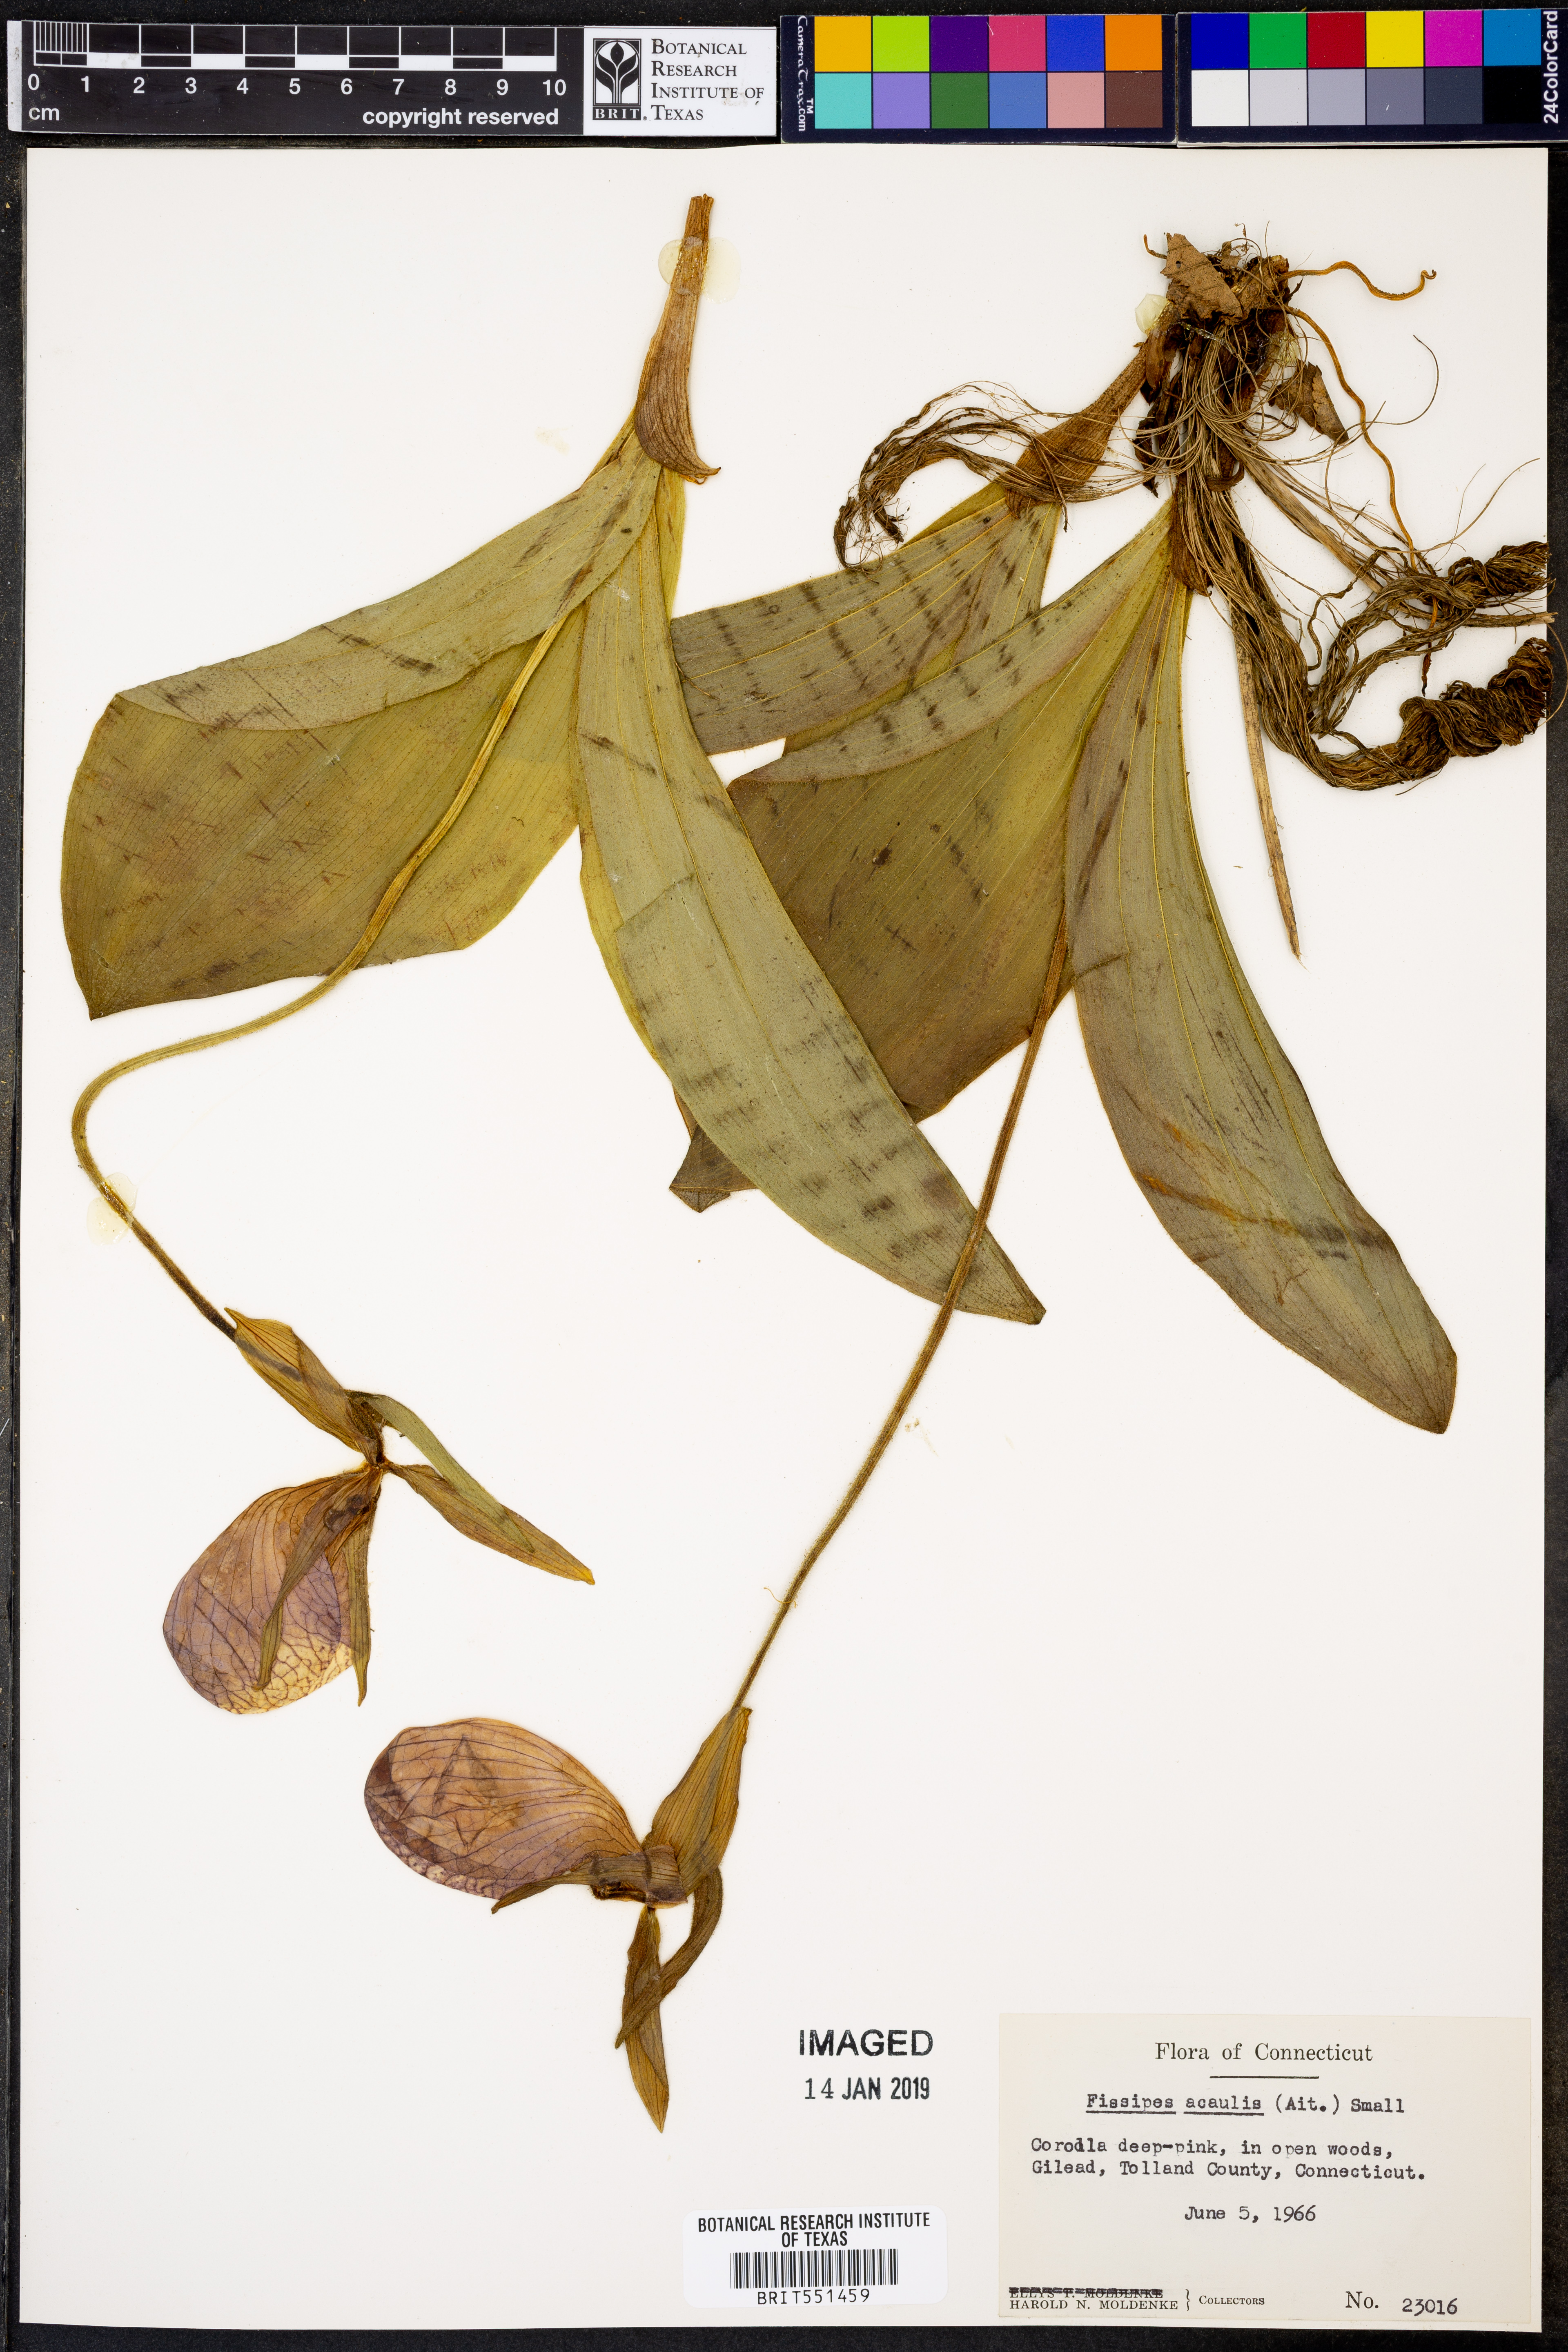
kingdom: Plantae
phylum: Tracheophyta
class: Liliopsida
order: Asparagales
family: Orchidaceae
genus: Cypripedium
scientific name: Cypripedium acaule
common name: Pink lady's-slipper
